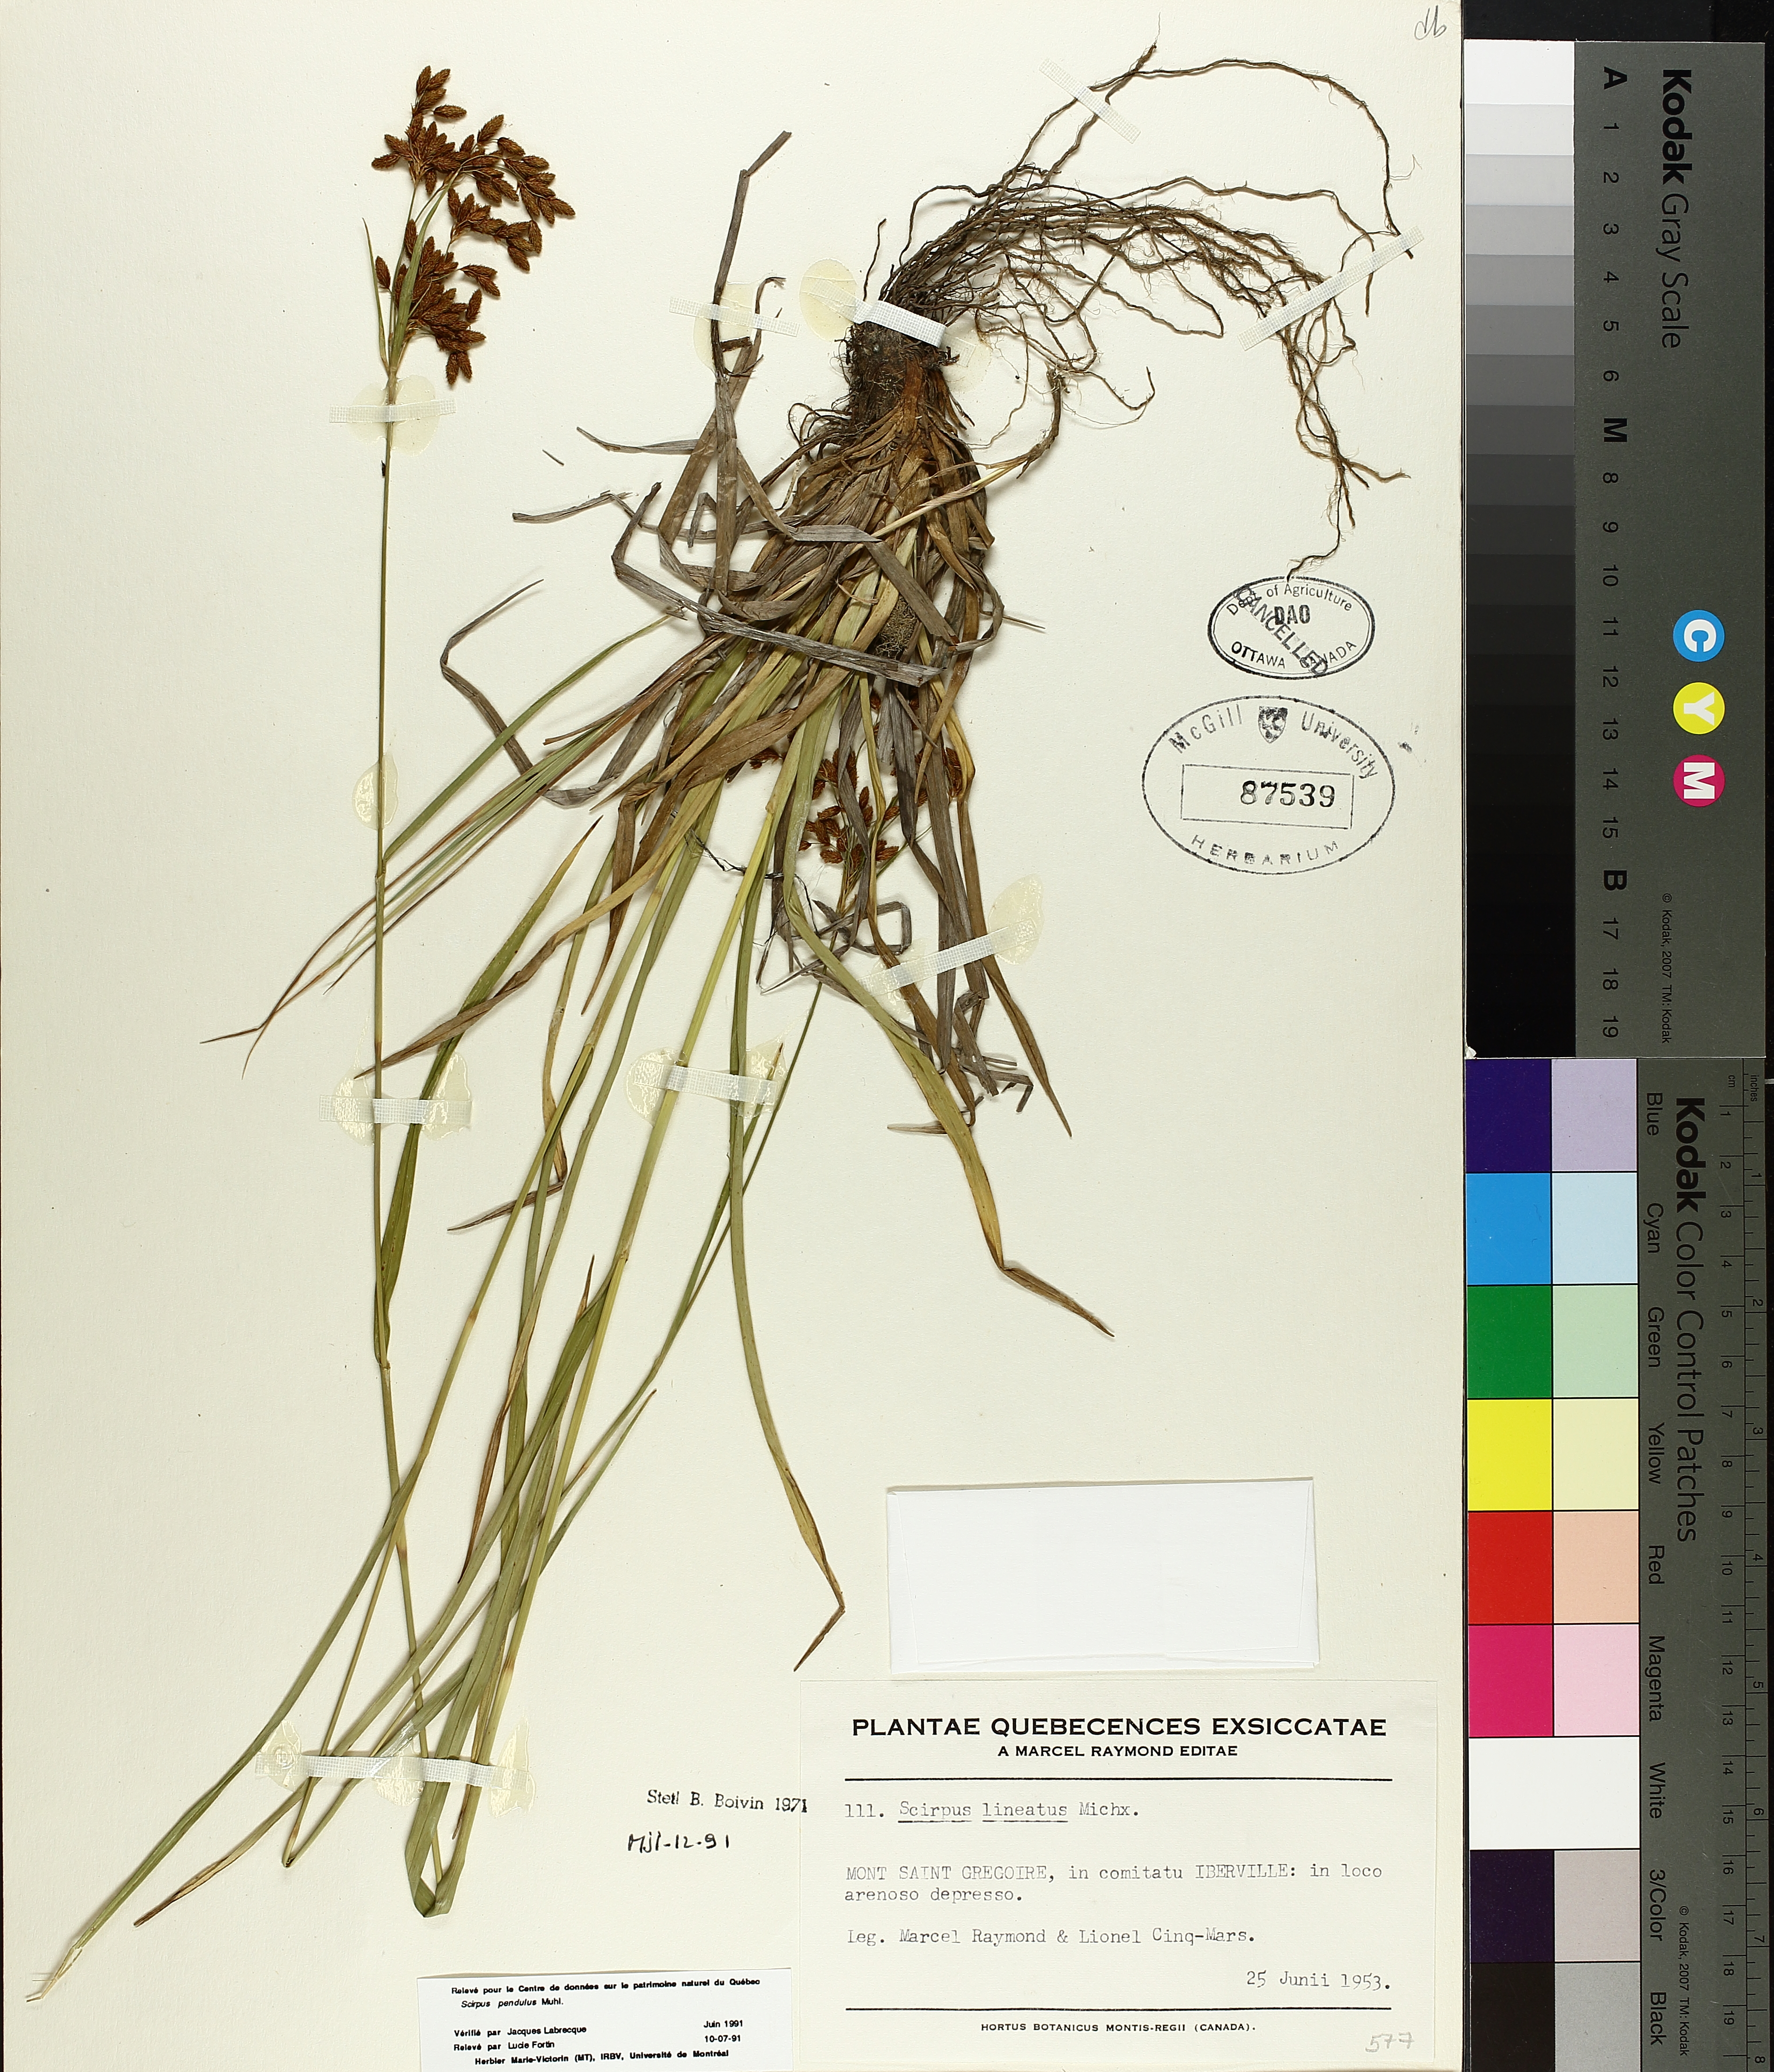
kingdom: Plantae
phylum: Tracheophyta
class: Liliopsida
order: Poales
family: Cyperaceae
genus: Scirpus
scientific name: Scirpus pendulus
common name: Nodding bulrush
